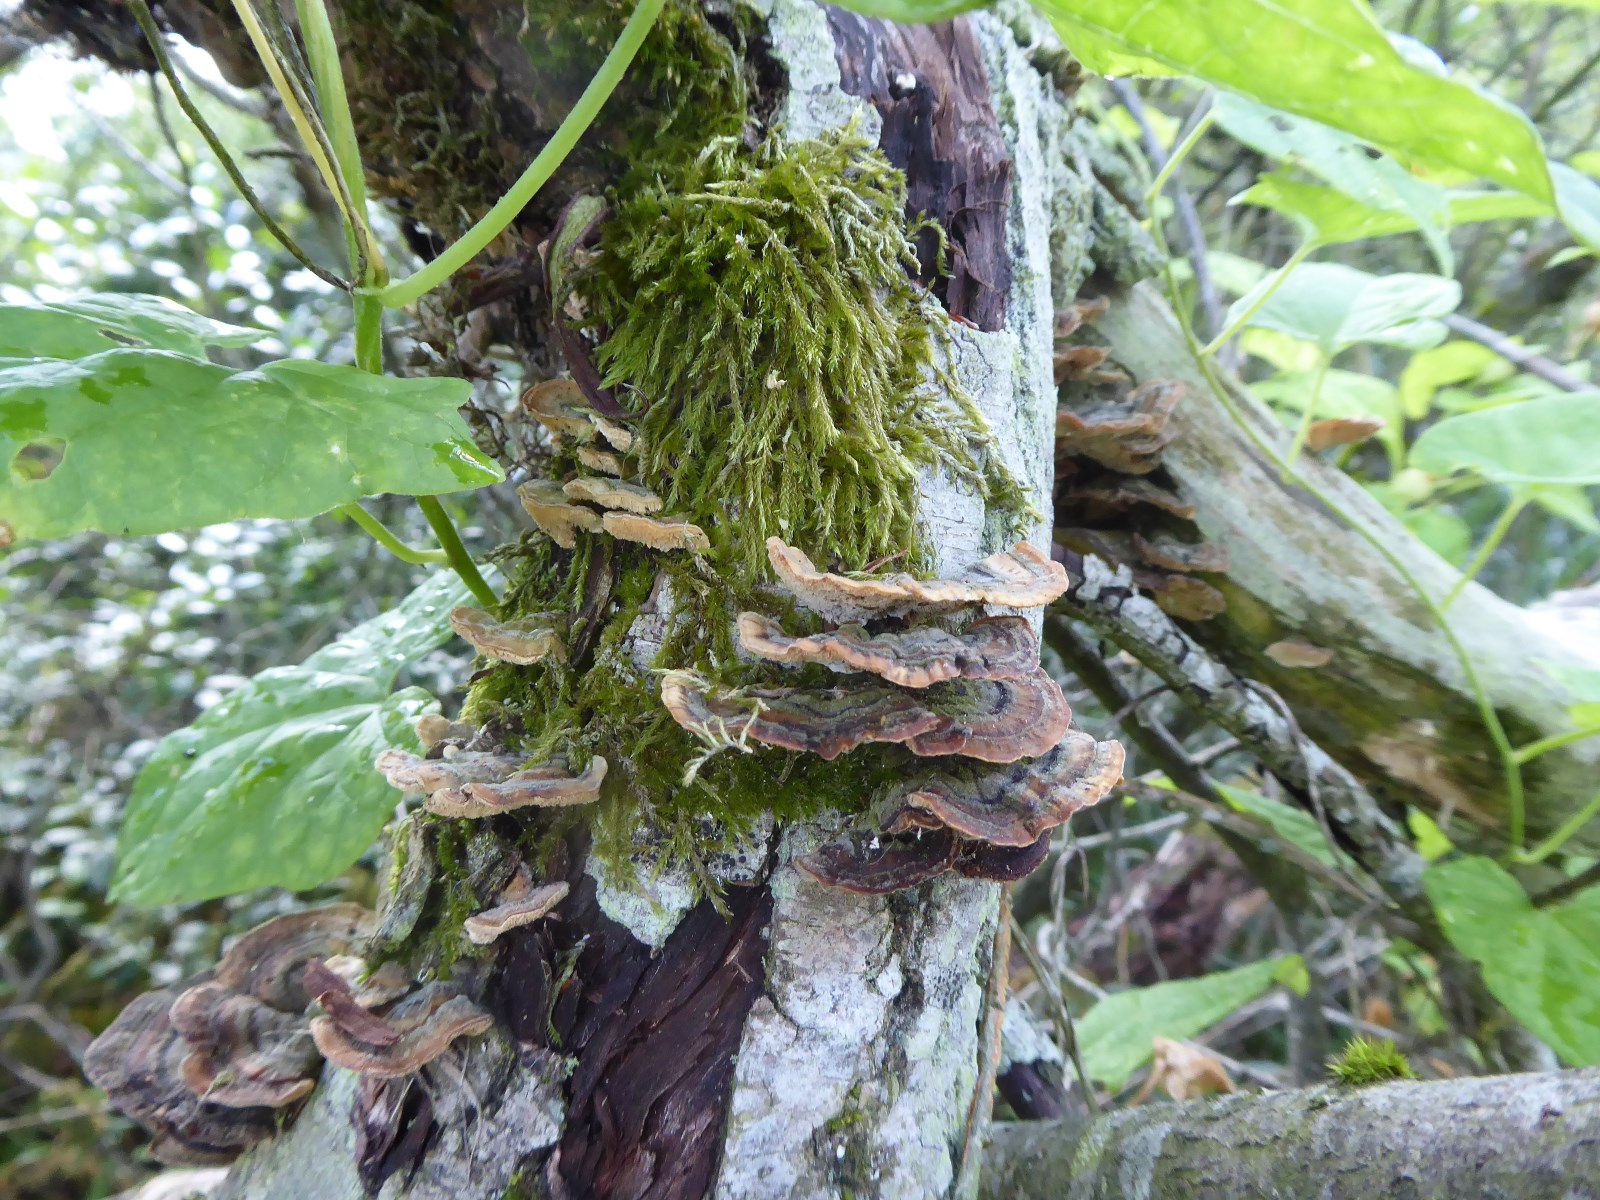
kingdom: Fungi
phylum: Basidiomycota
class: Agaricomycetes
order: Polyporales
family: Polyporaceae
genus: Trametes
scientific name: Trametes versicolor
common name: broget læderporesvamp
